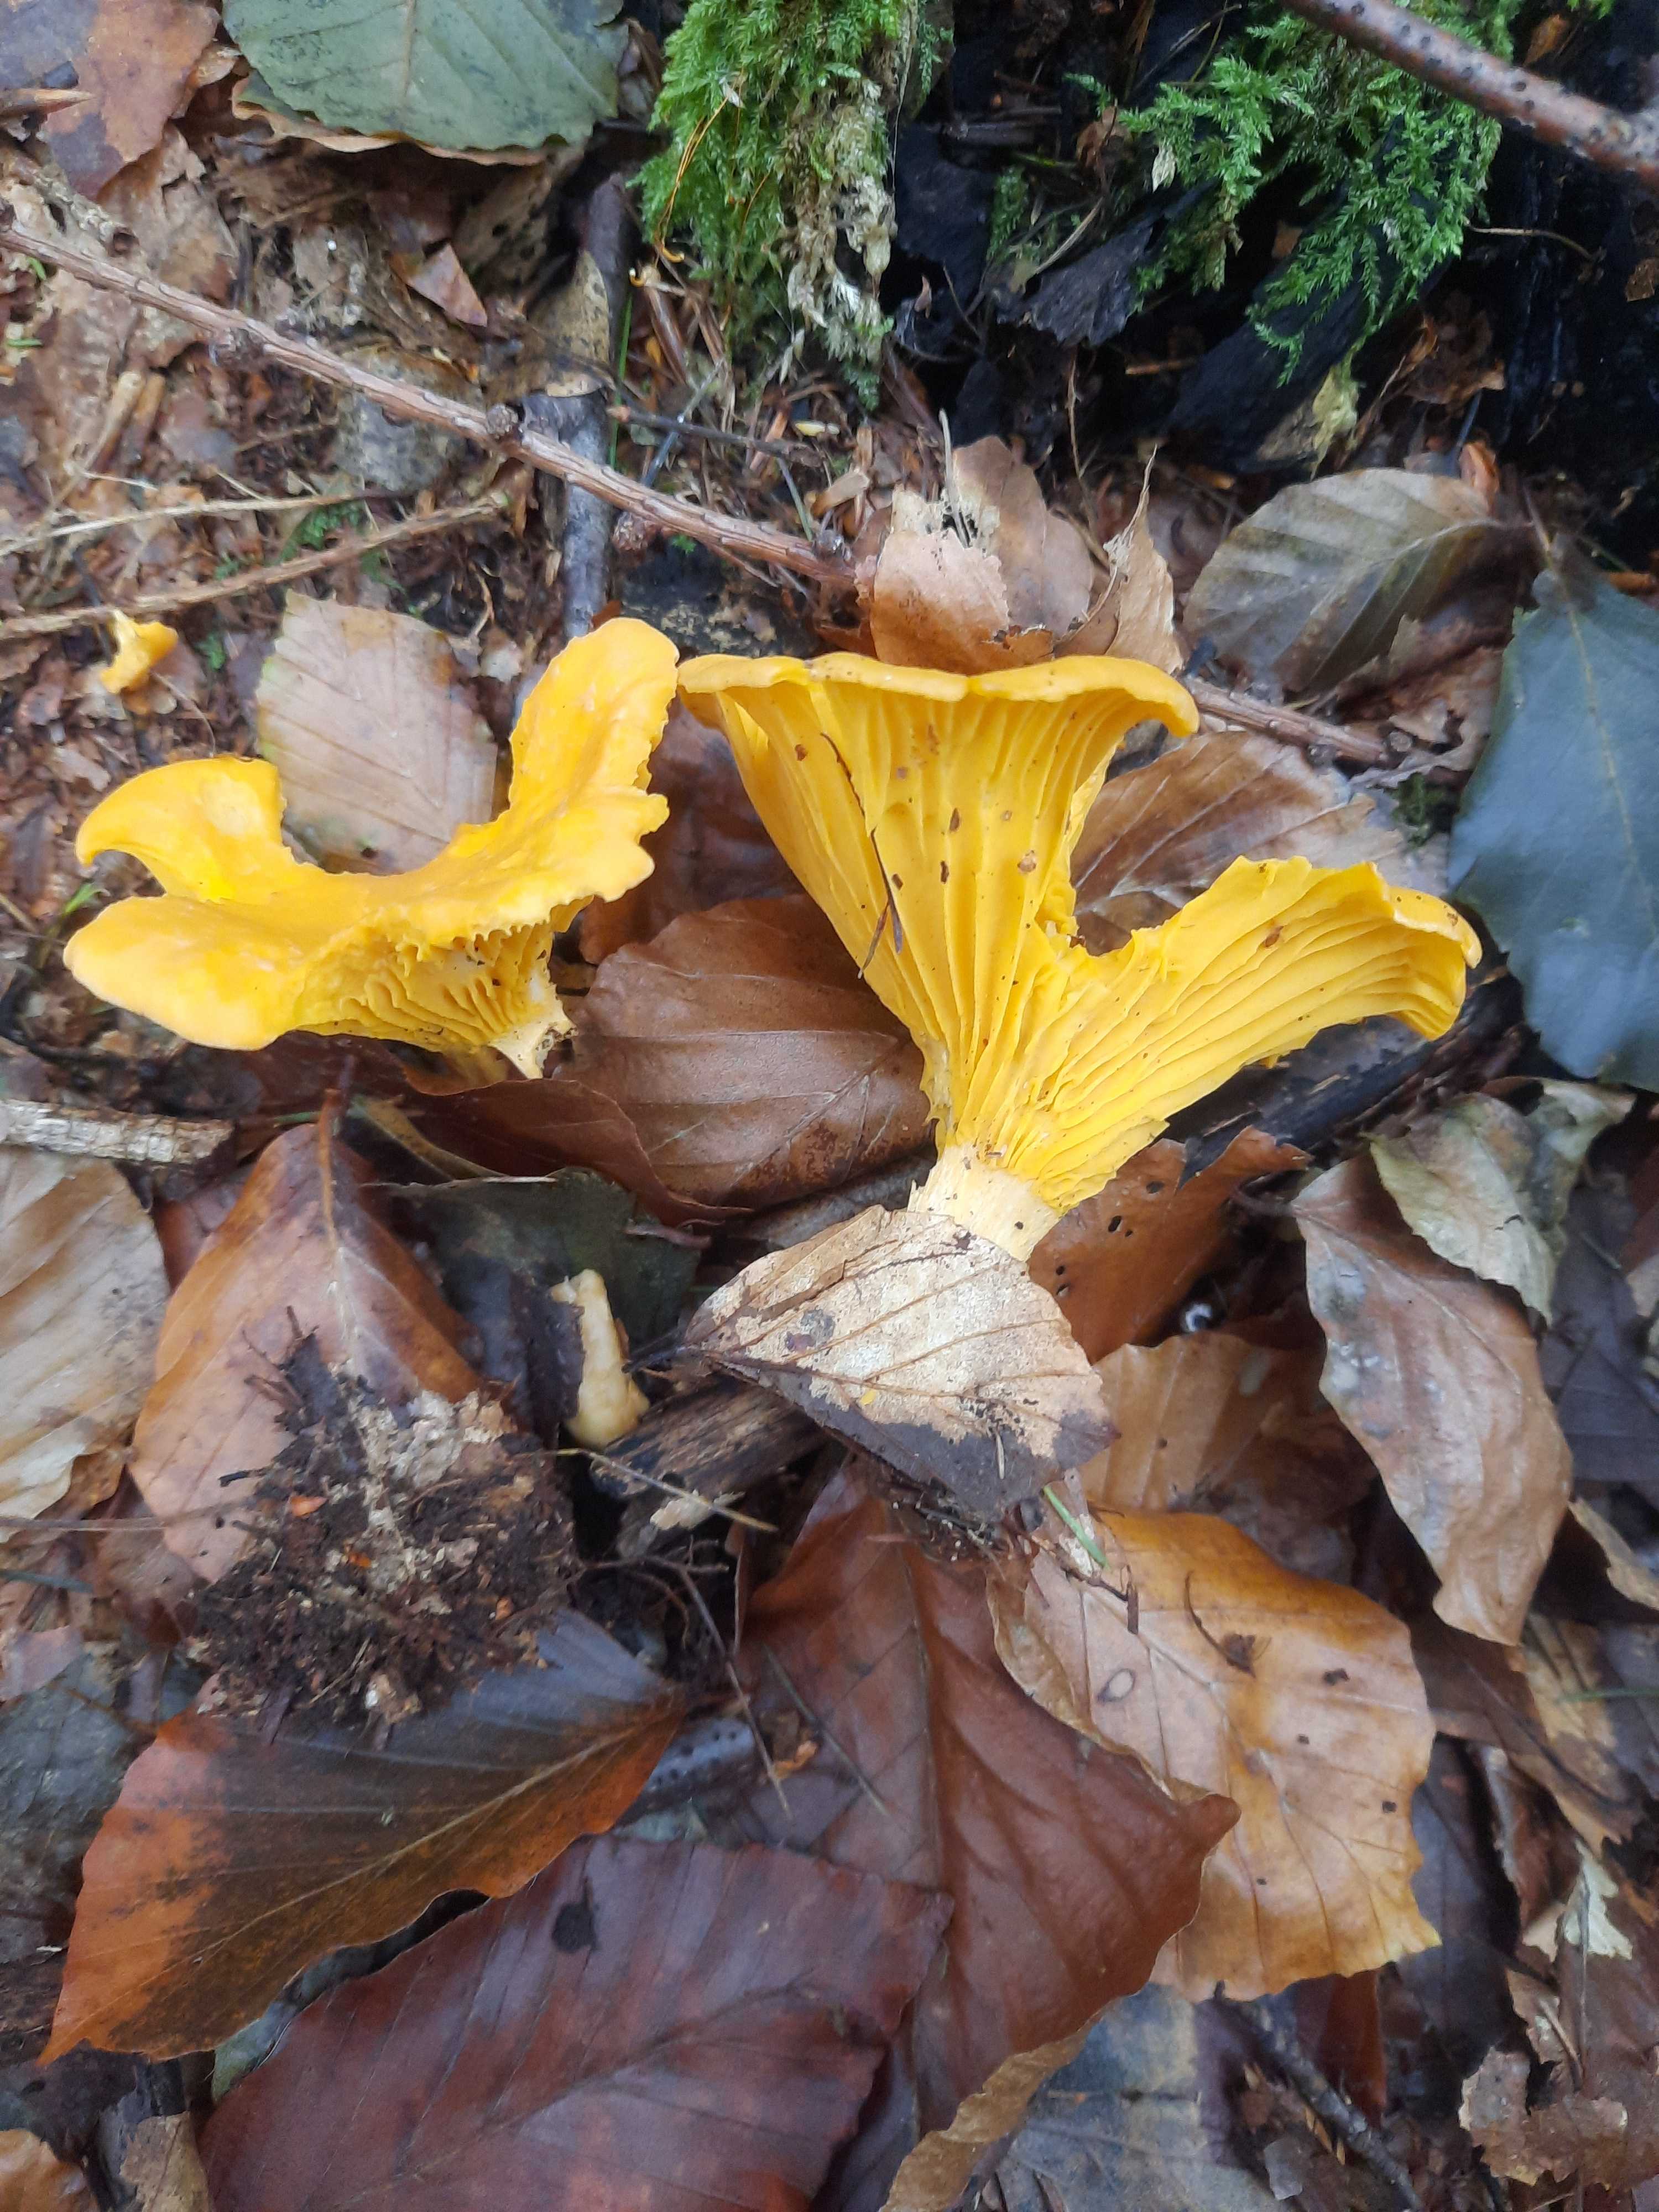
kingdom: Fungi
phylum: Basidiomycota
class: Agaricomycetes
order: Cantharellales
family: Hydnaceae
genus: Cantharellus
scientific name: Cantharellus cibarius
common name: almindelig kantarel
